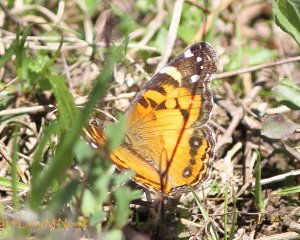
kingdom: Animalia
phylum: Arthropoda
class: Insecta
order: Lepidoptera
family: Nymphalidae
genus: Vanessa
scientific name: Vanessa virginiensis
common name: American Lady
